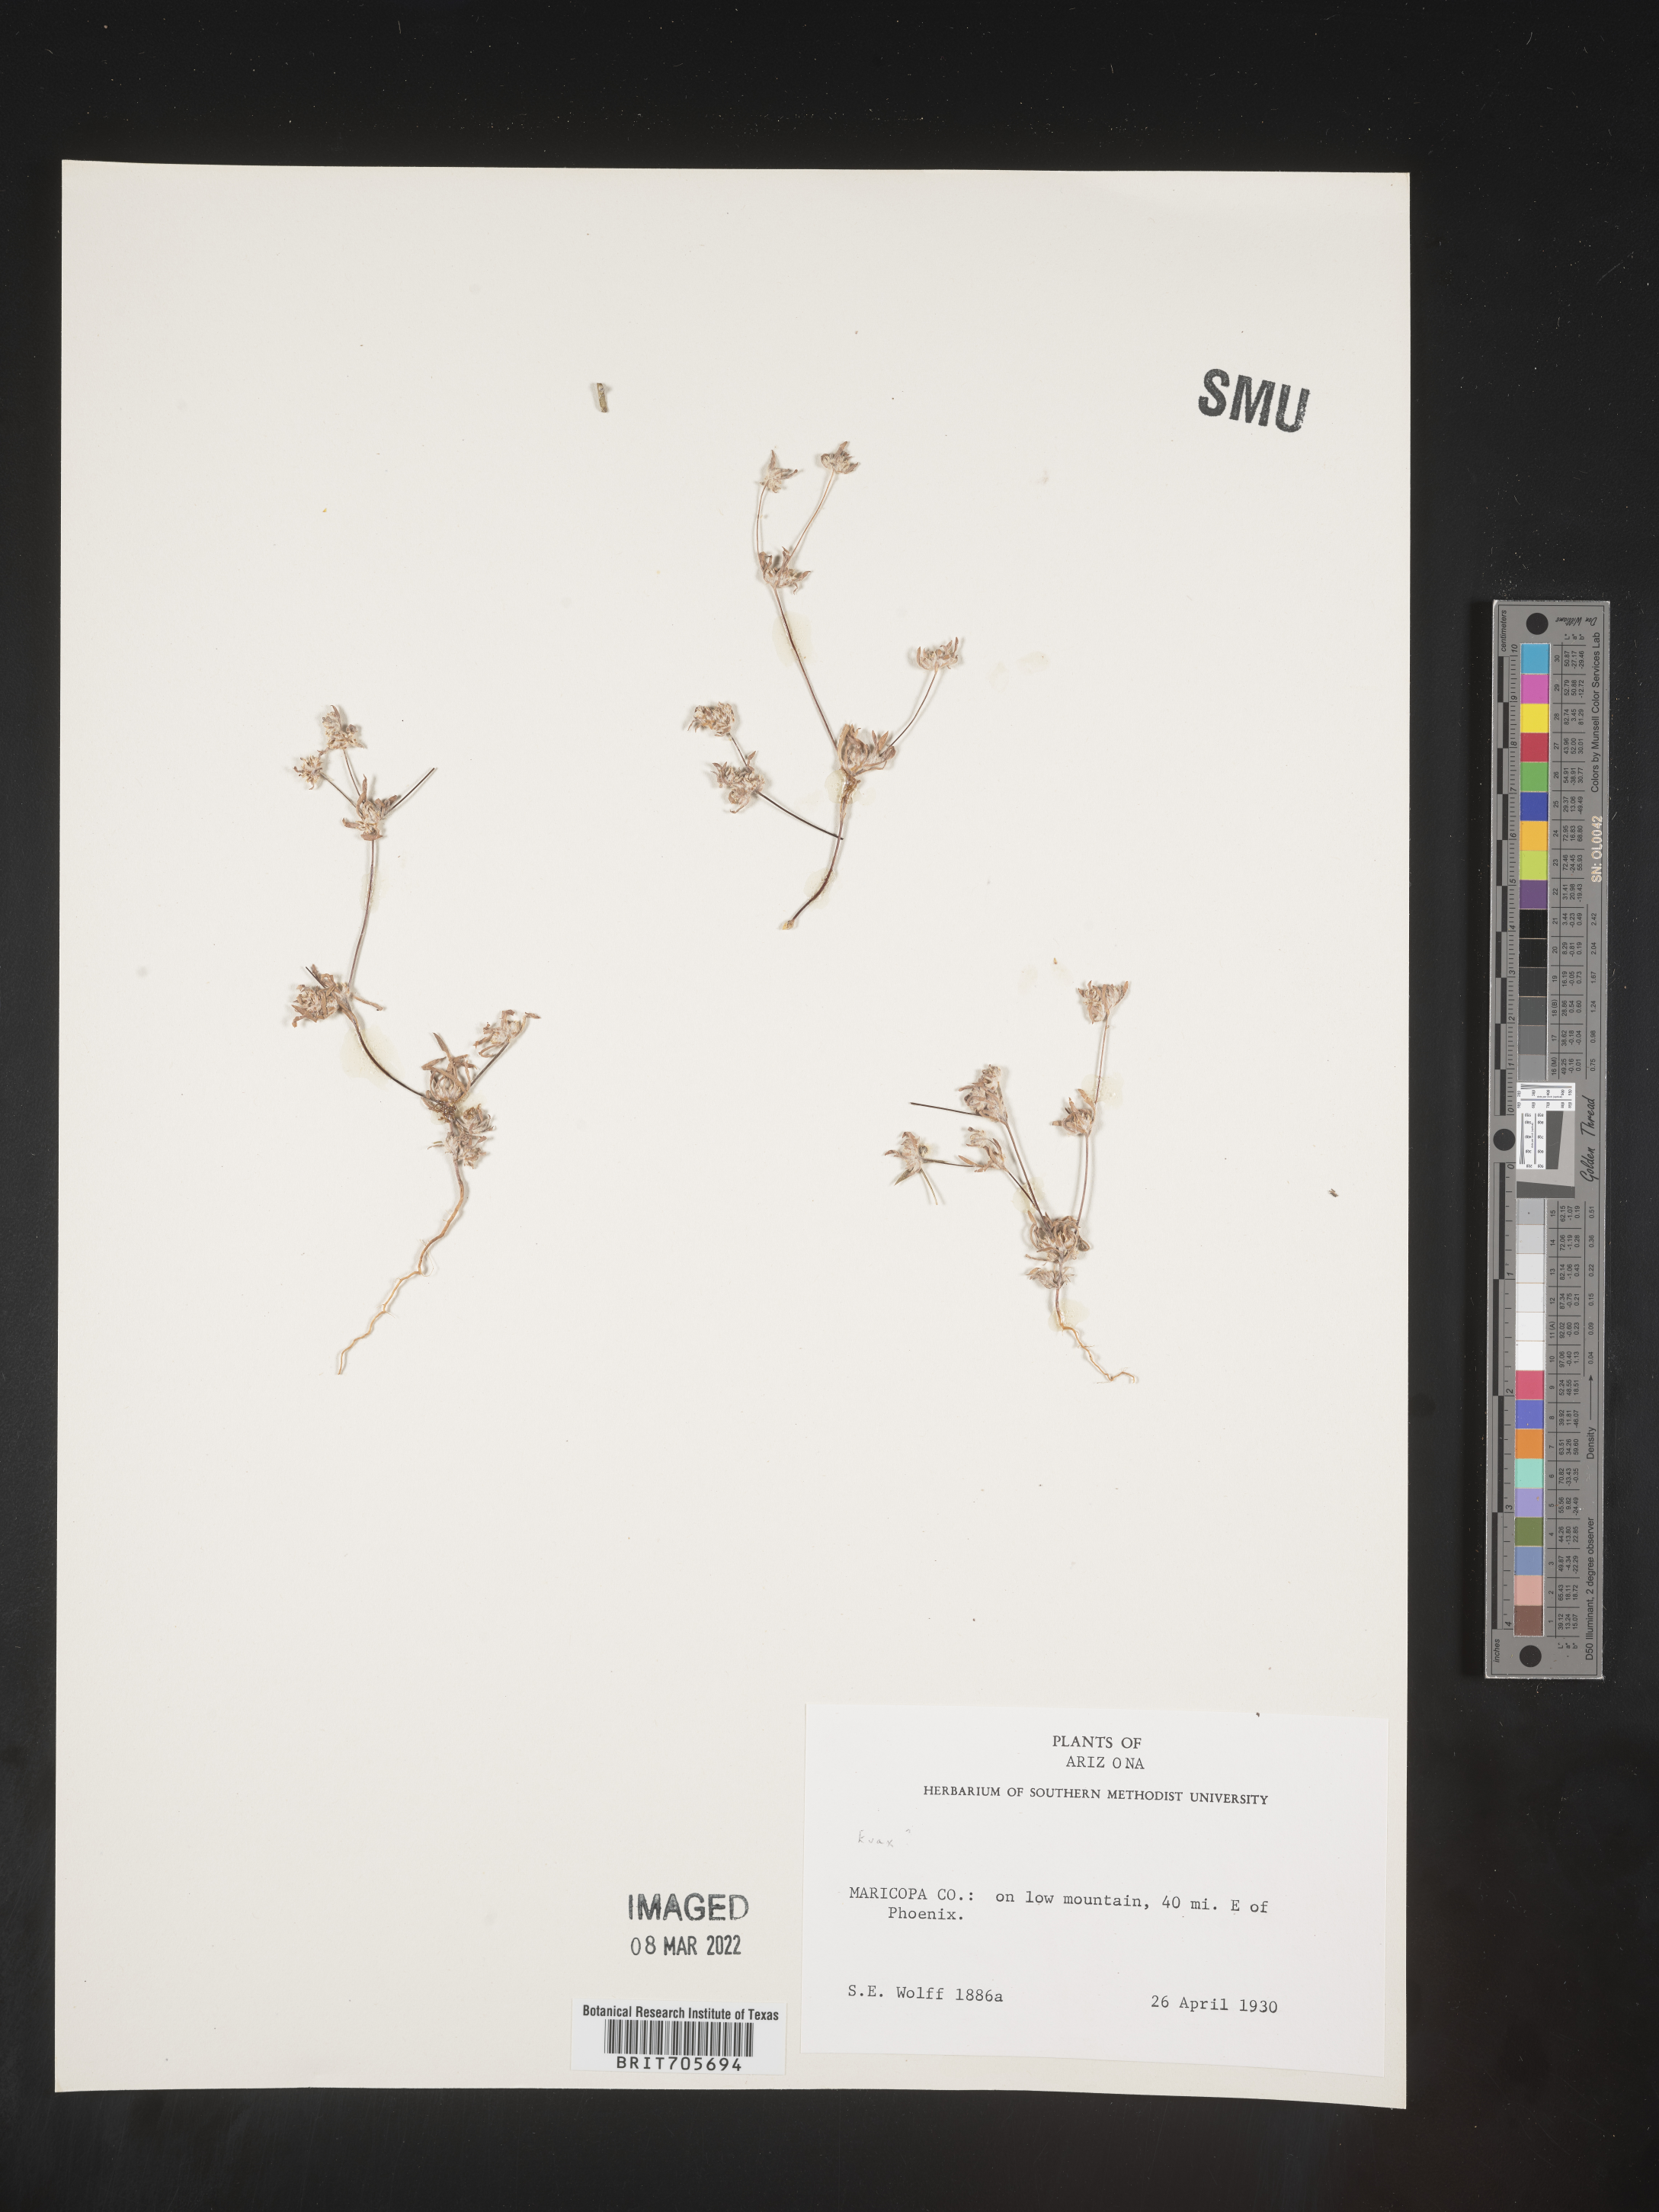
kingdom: Plantae
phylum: Tracheophyta
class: Magnoliopsida
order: Asterales
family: Asteraceae
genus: Filago
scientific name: Filago
